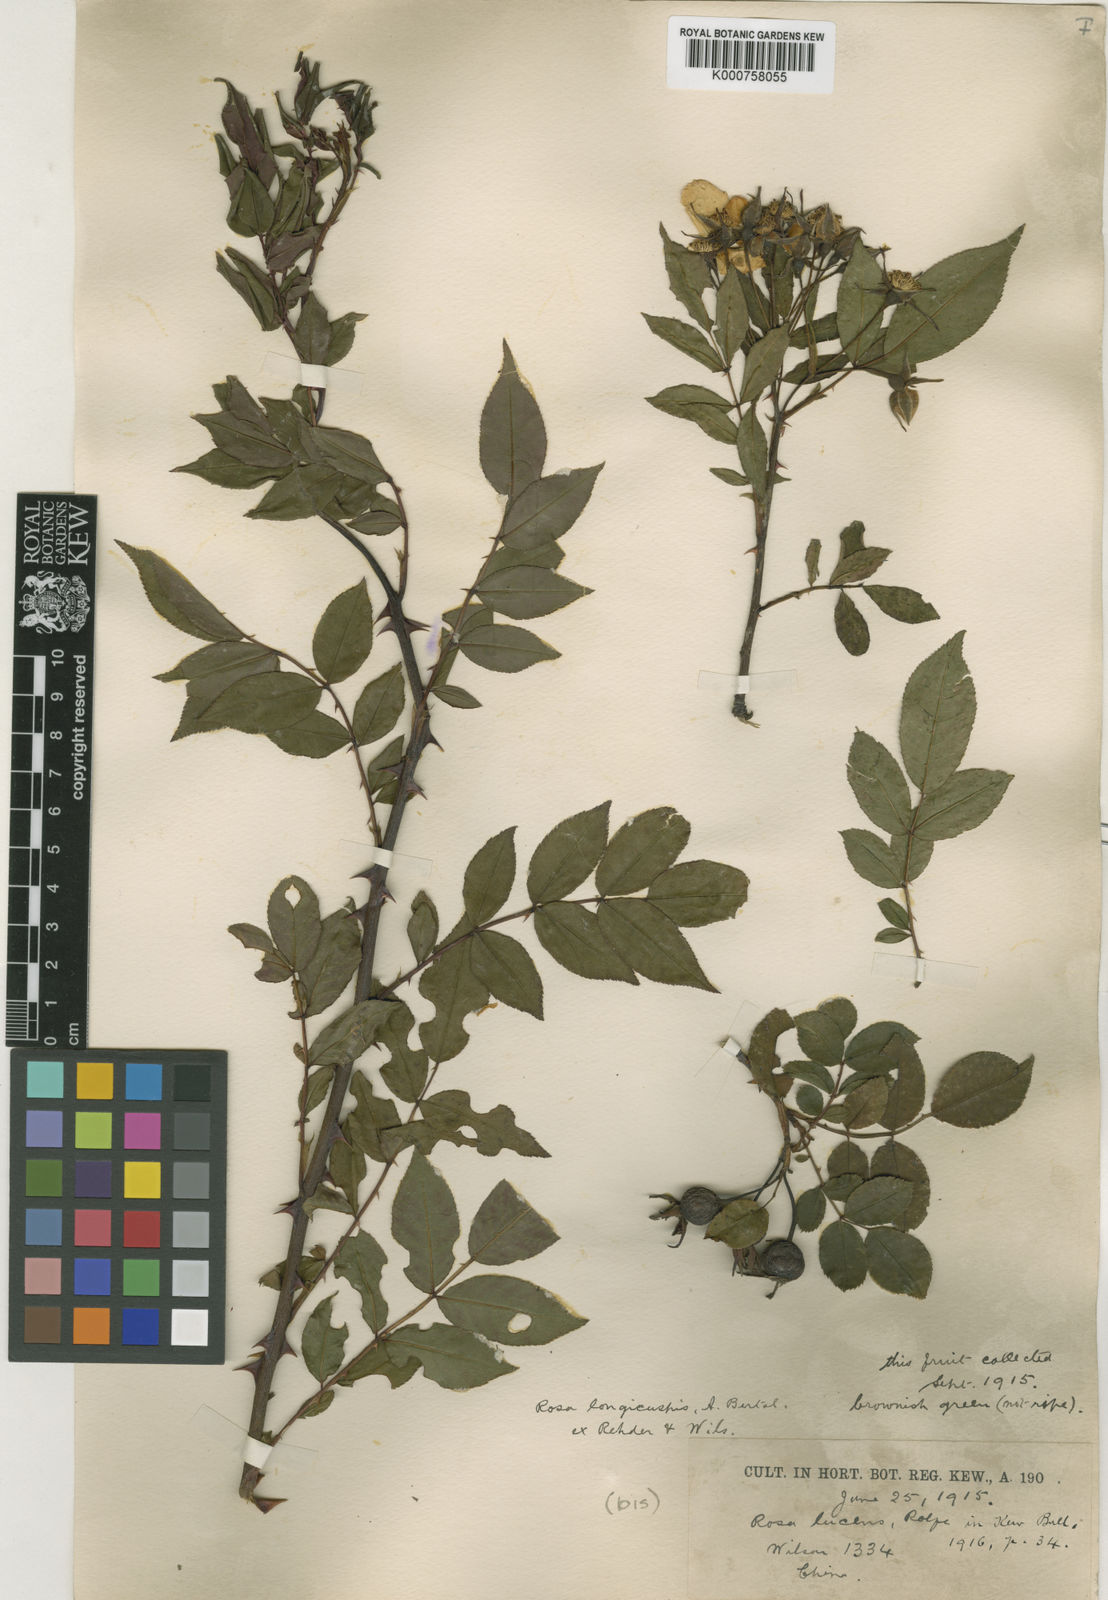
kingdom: Plantae
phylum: Tracheophyta
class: Magnoliopsida
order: Rosales
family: Rosaceae
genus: Rosa
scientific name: Rosa longicuspis
